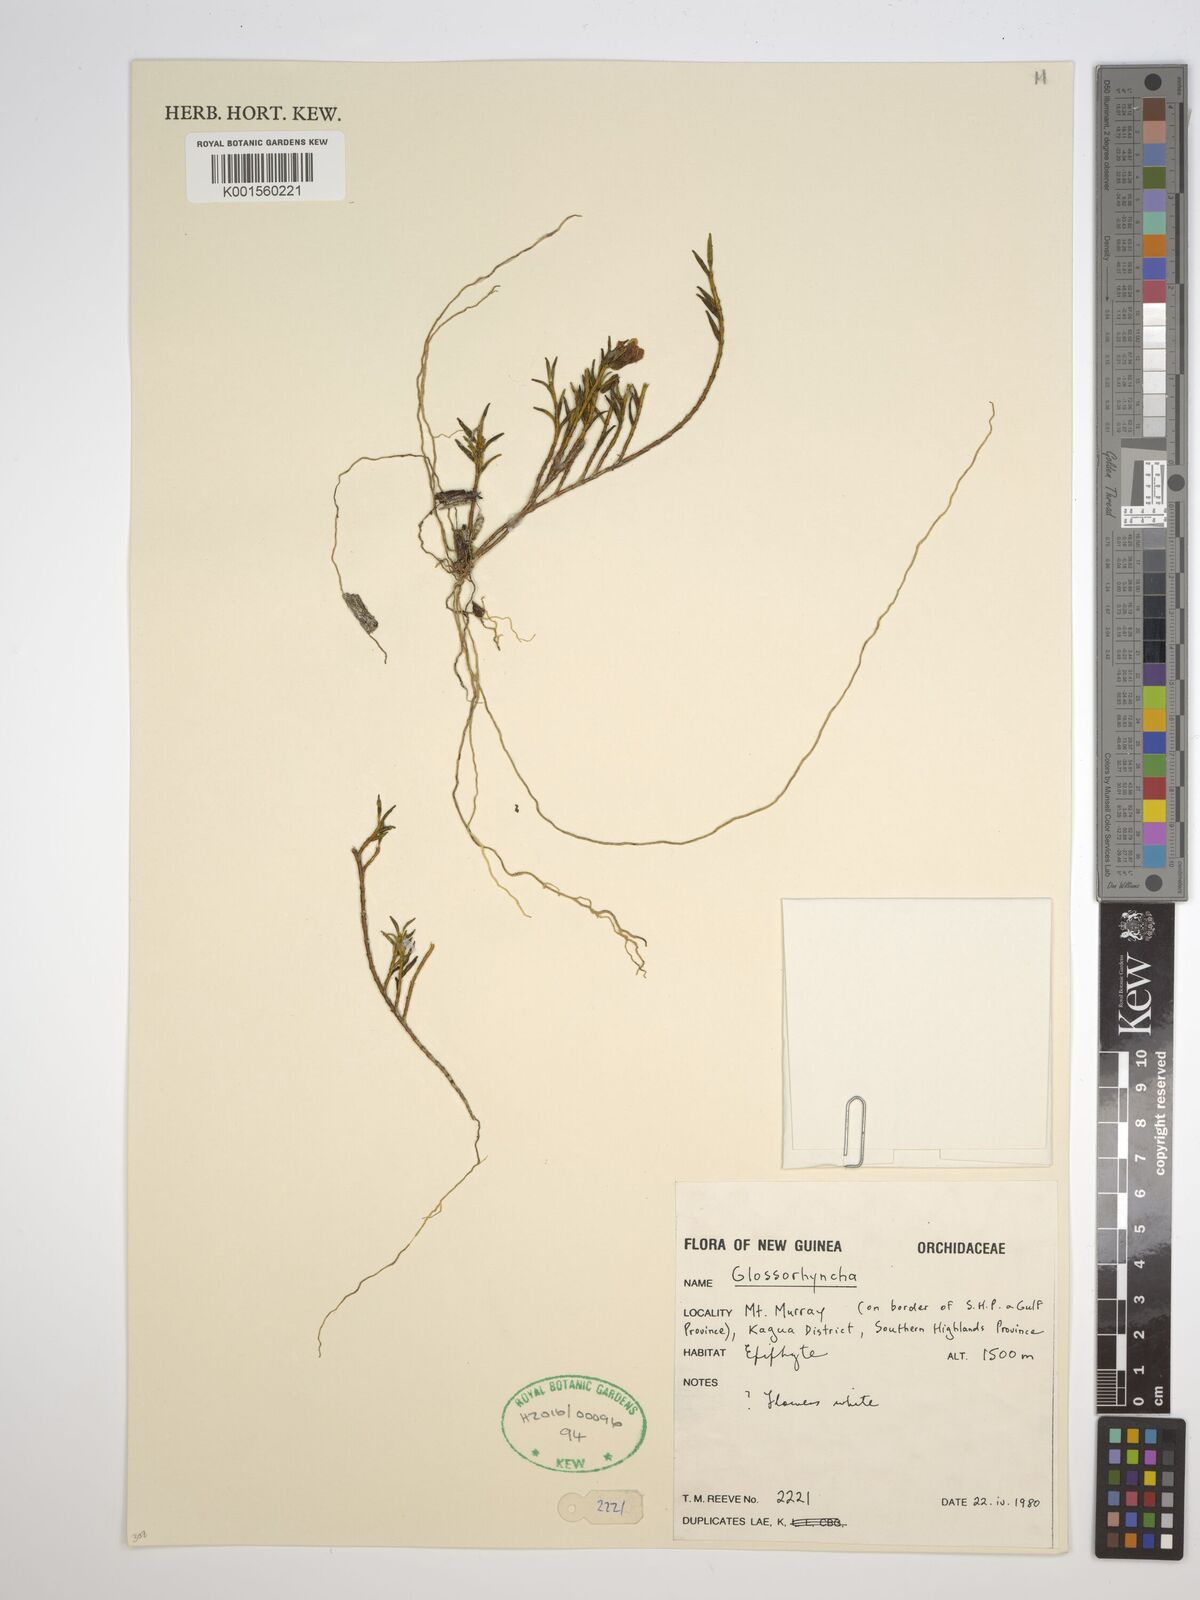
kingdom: Plantae
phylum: Tracheophyta
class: Liliopsida
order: Asparagales
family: Orchidaceae
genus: Glomera
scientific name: Glomera
